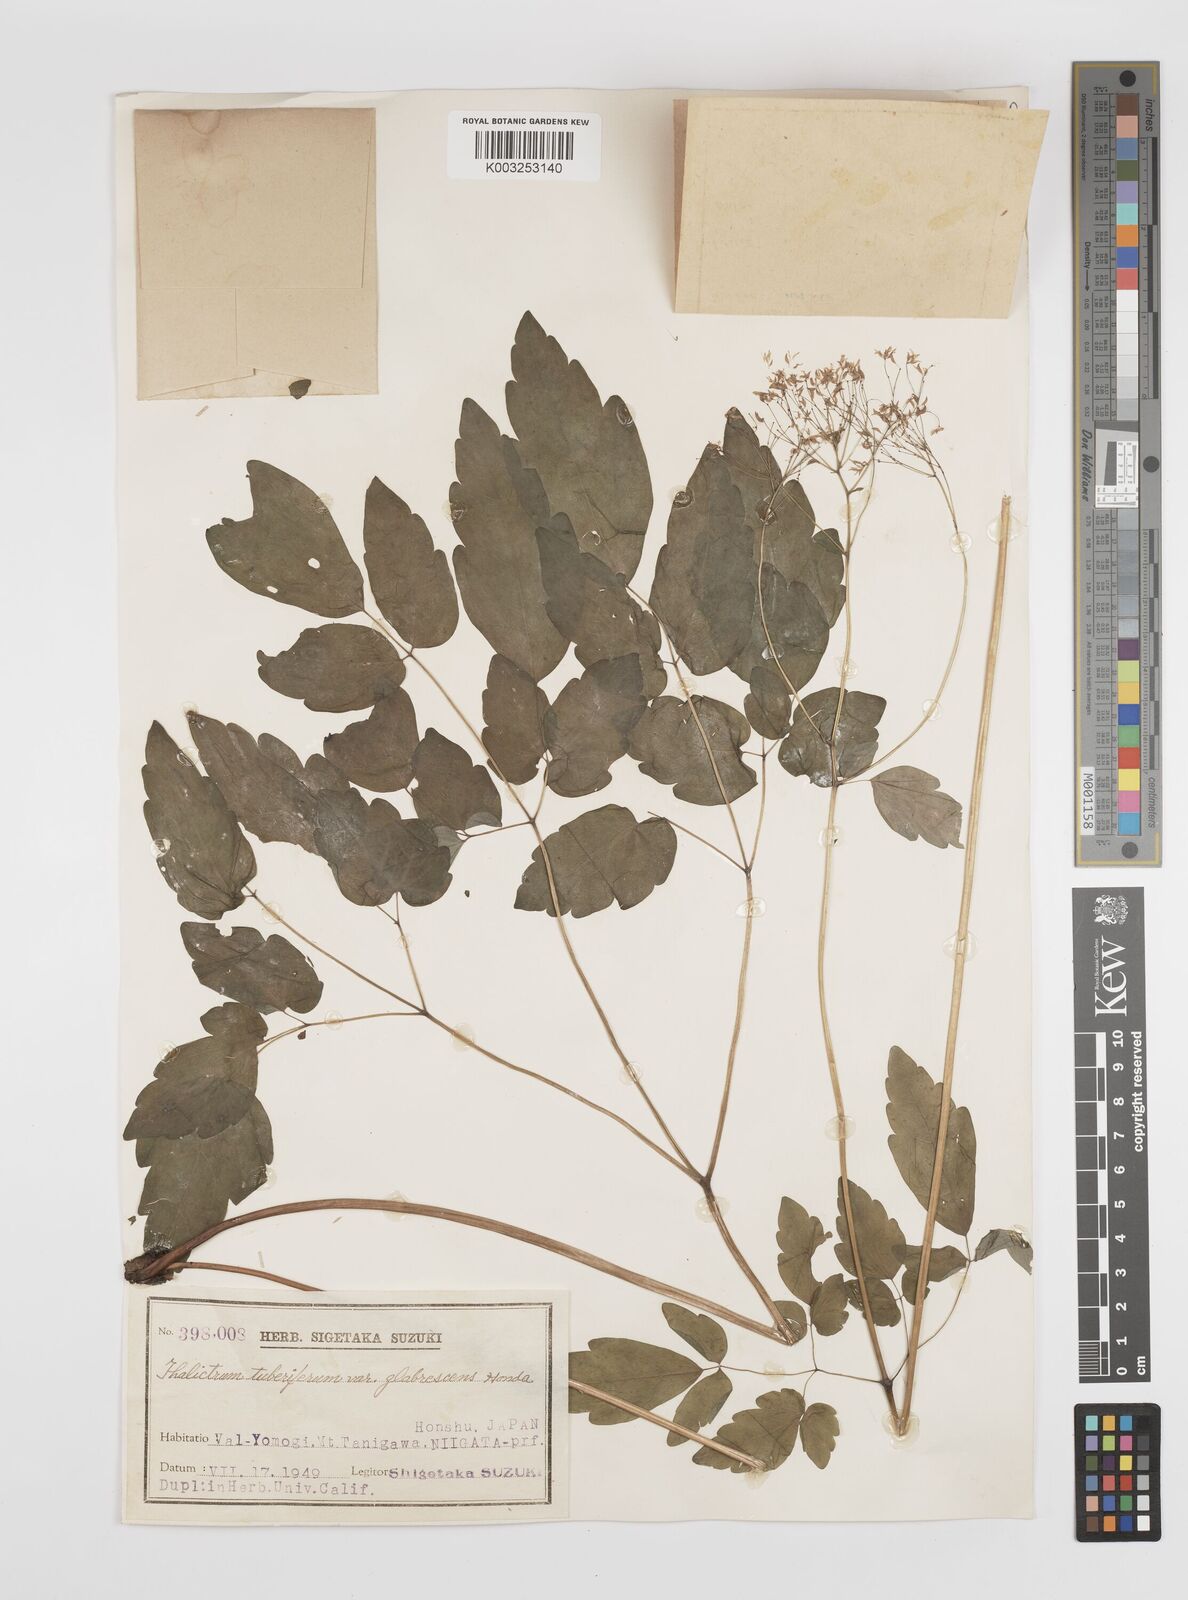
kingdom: Plantae
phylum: Tracheophyta
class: Magnoliopsida
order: Ranunculales
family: Ranunculaceae
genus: Thalictrum
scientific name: Thalictrum tuberiferum
